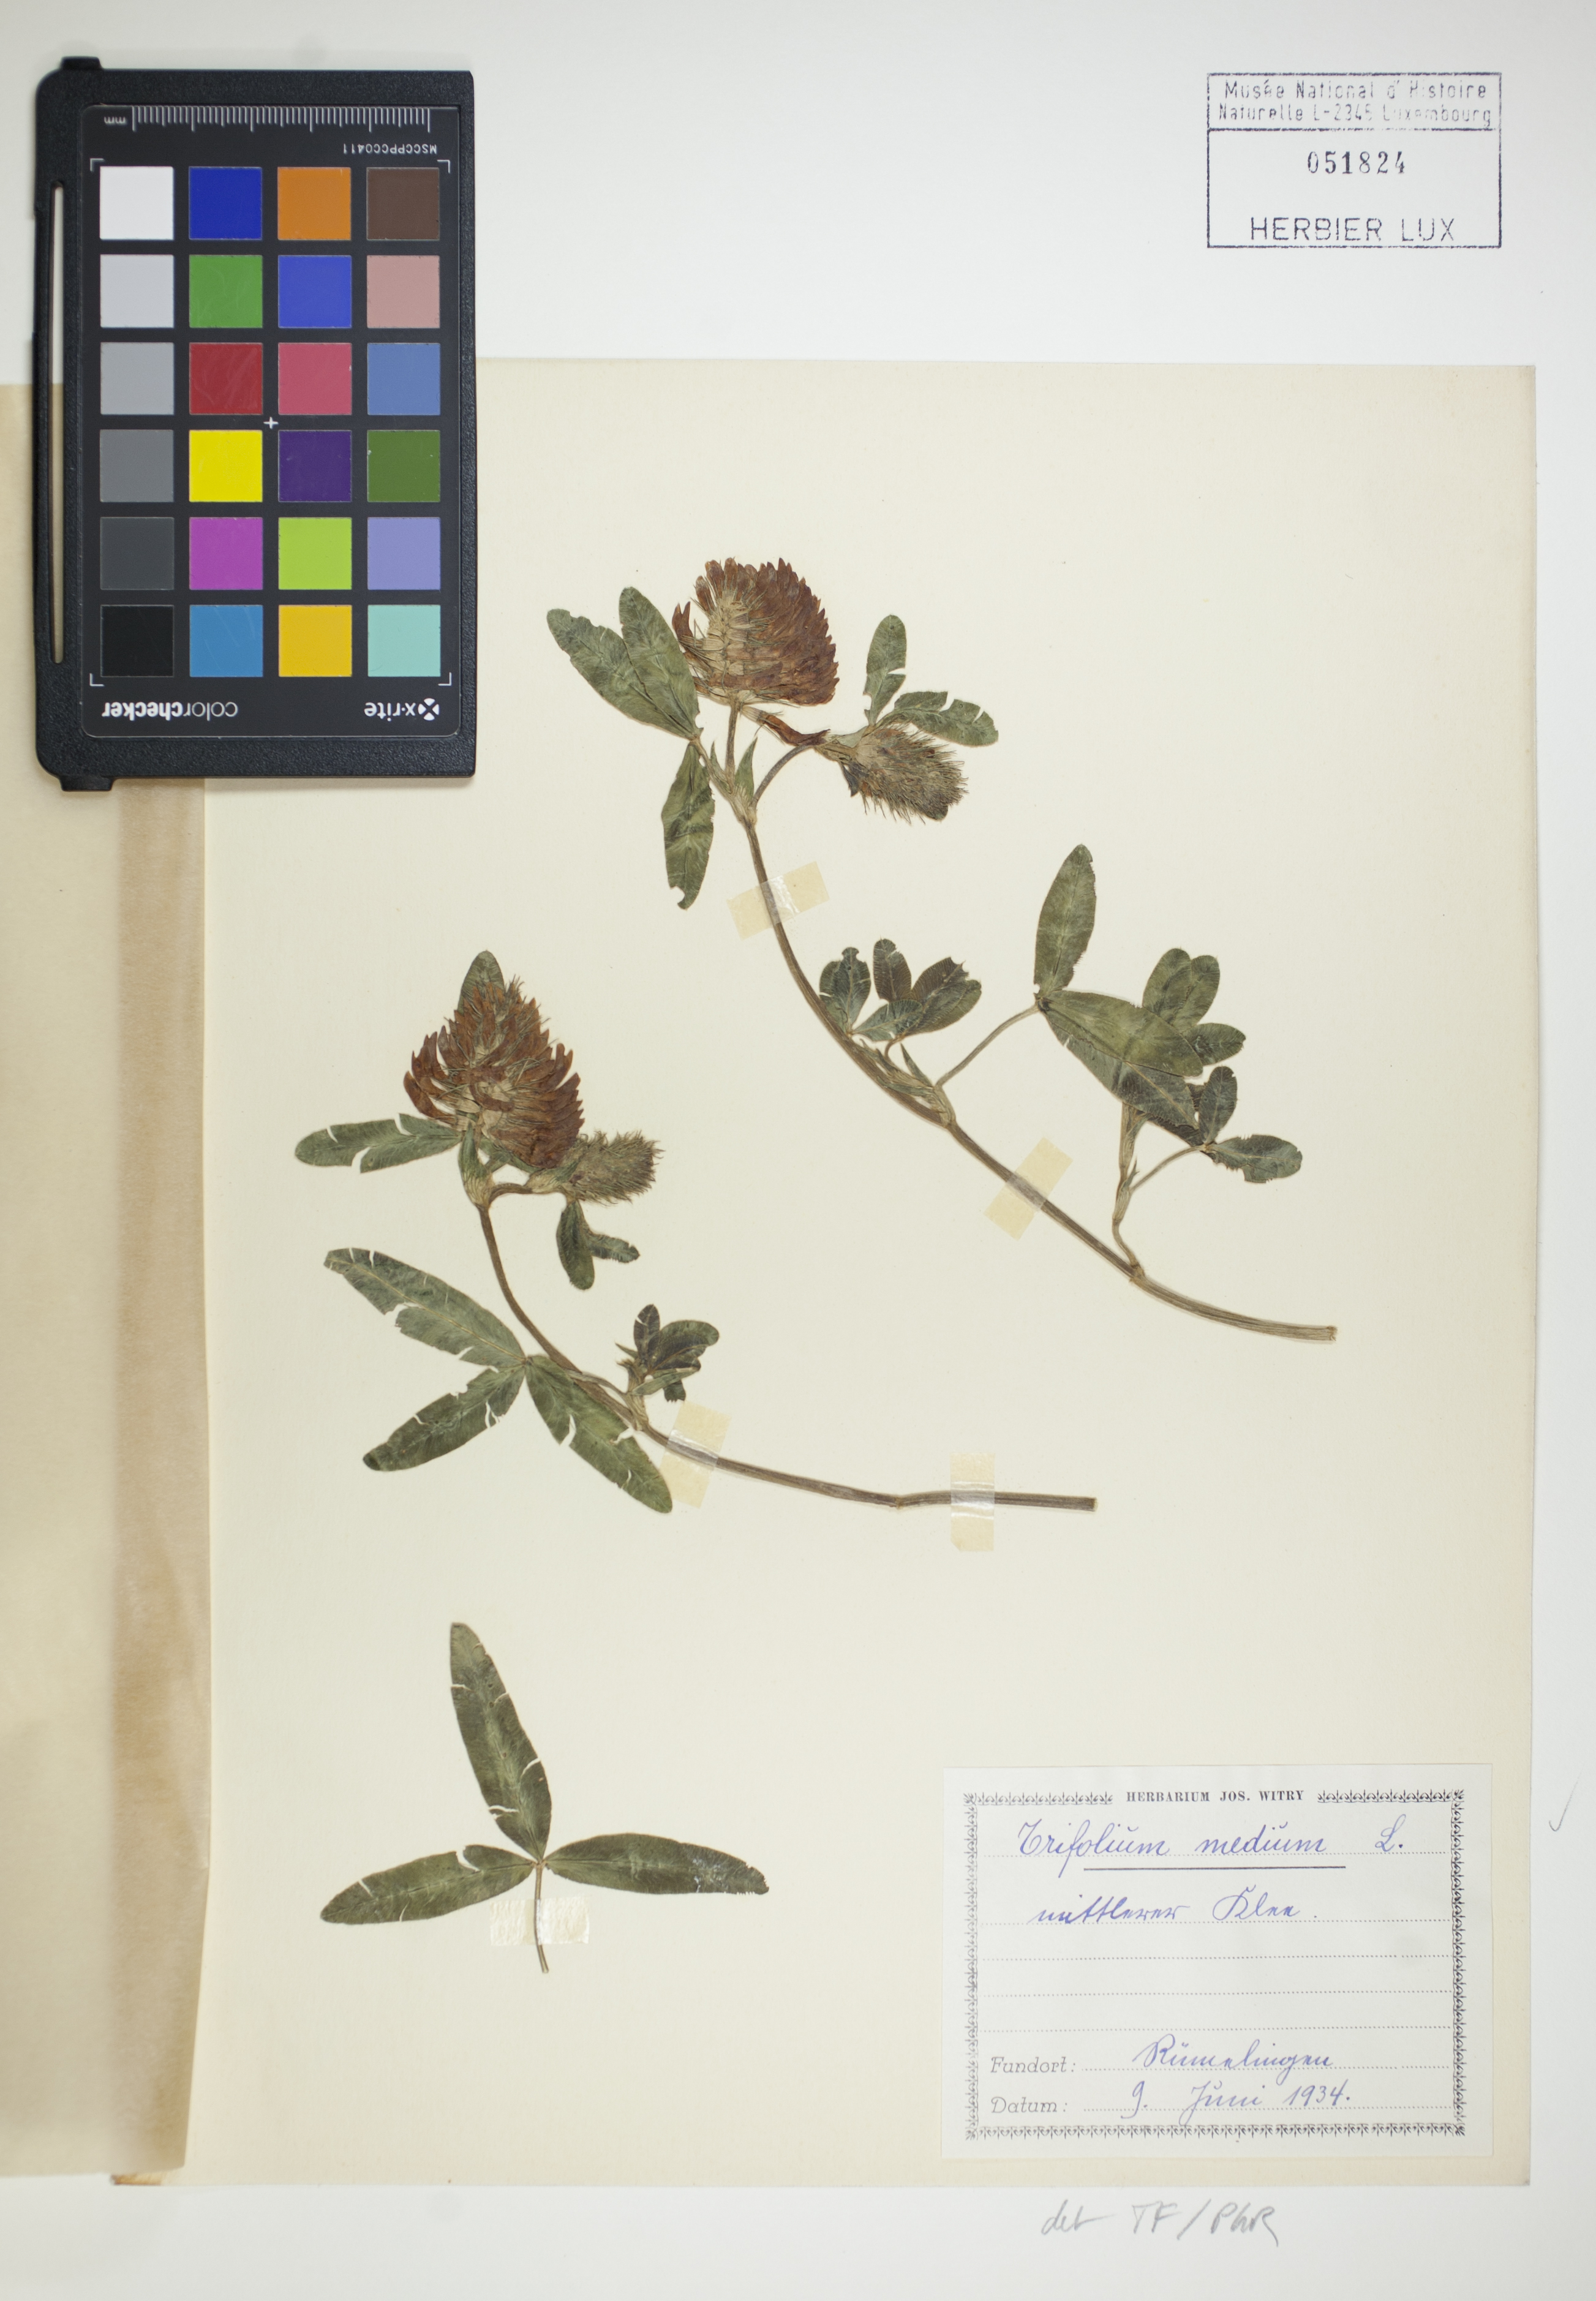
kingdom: Plantae
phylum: Tracheophyta
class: Magnoliopsida
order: Fabales
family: Fabaceae
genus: Trifolium
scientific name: Trifolium medium
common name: Zigzag clover
